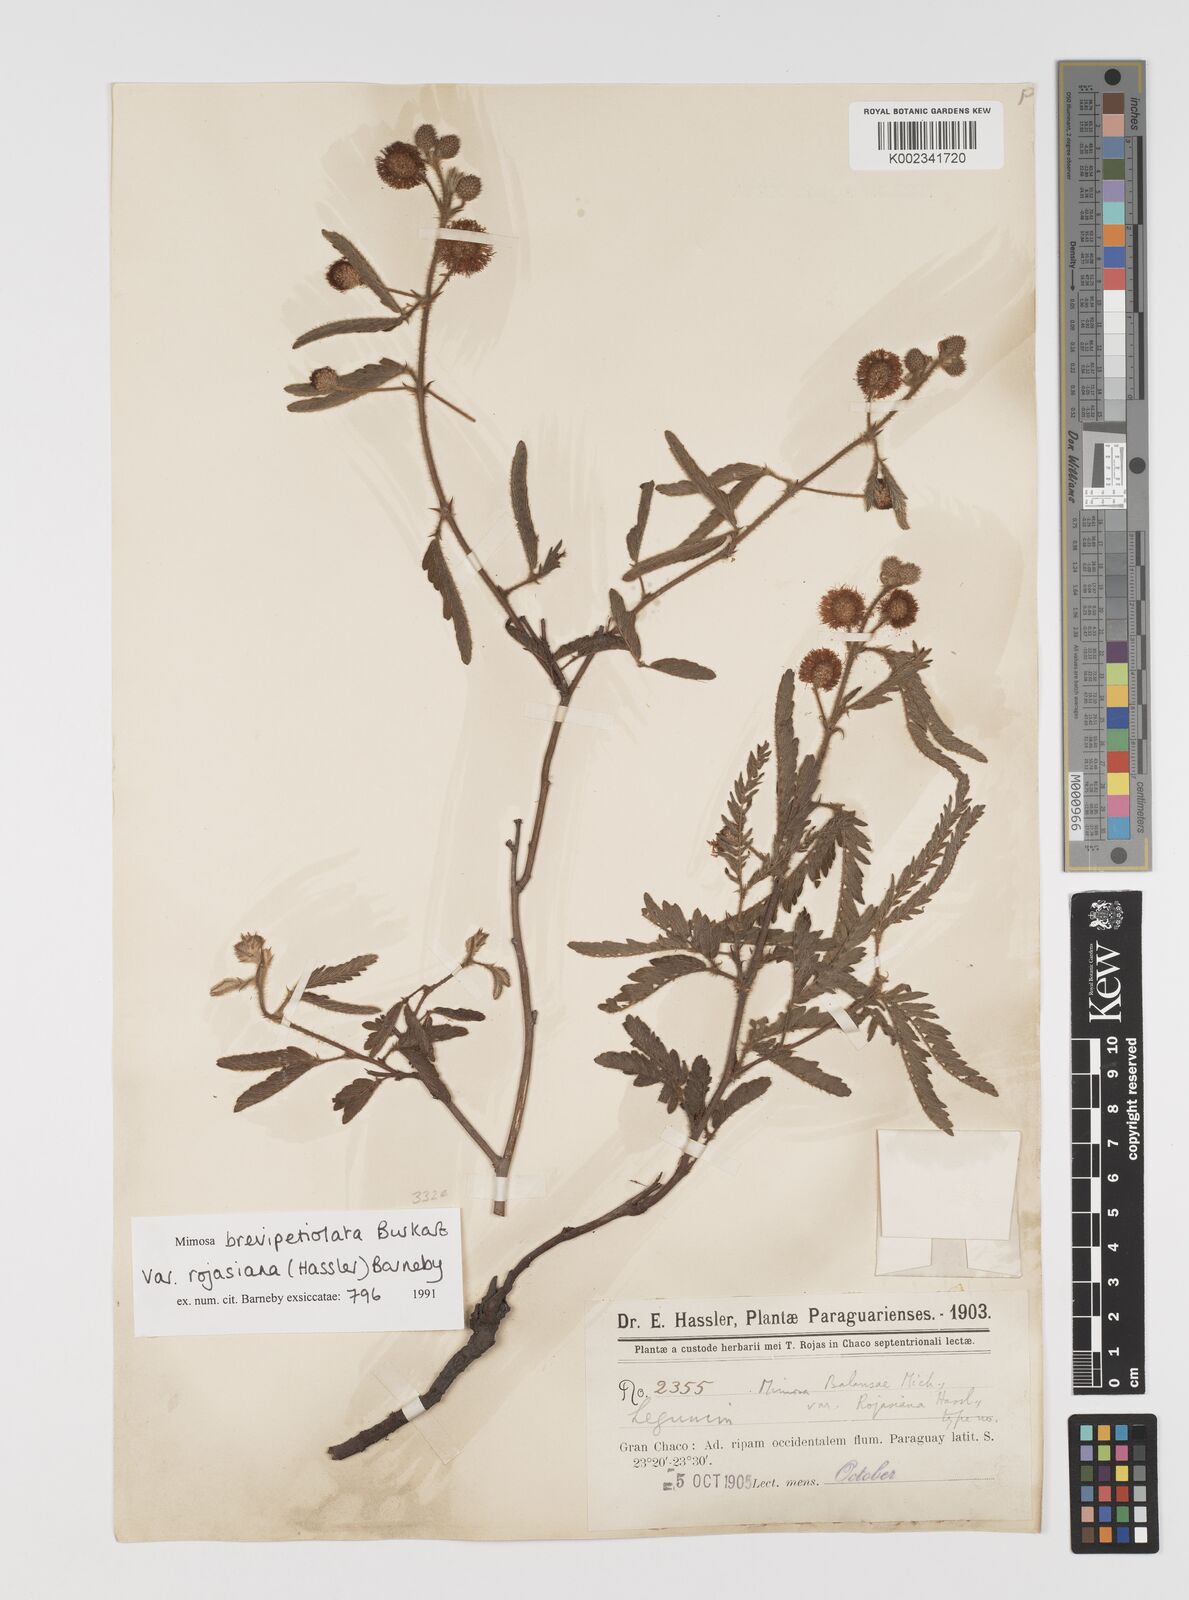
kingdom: Plantae
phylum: Tracheophyta
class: Magnoliopsida
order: Fabales
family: Fabaceae
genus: Mimosa
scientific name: Mimosa balansae
